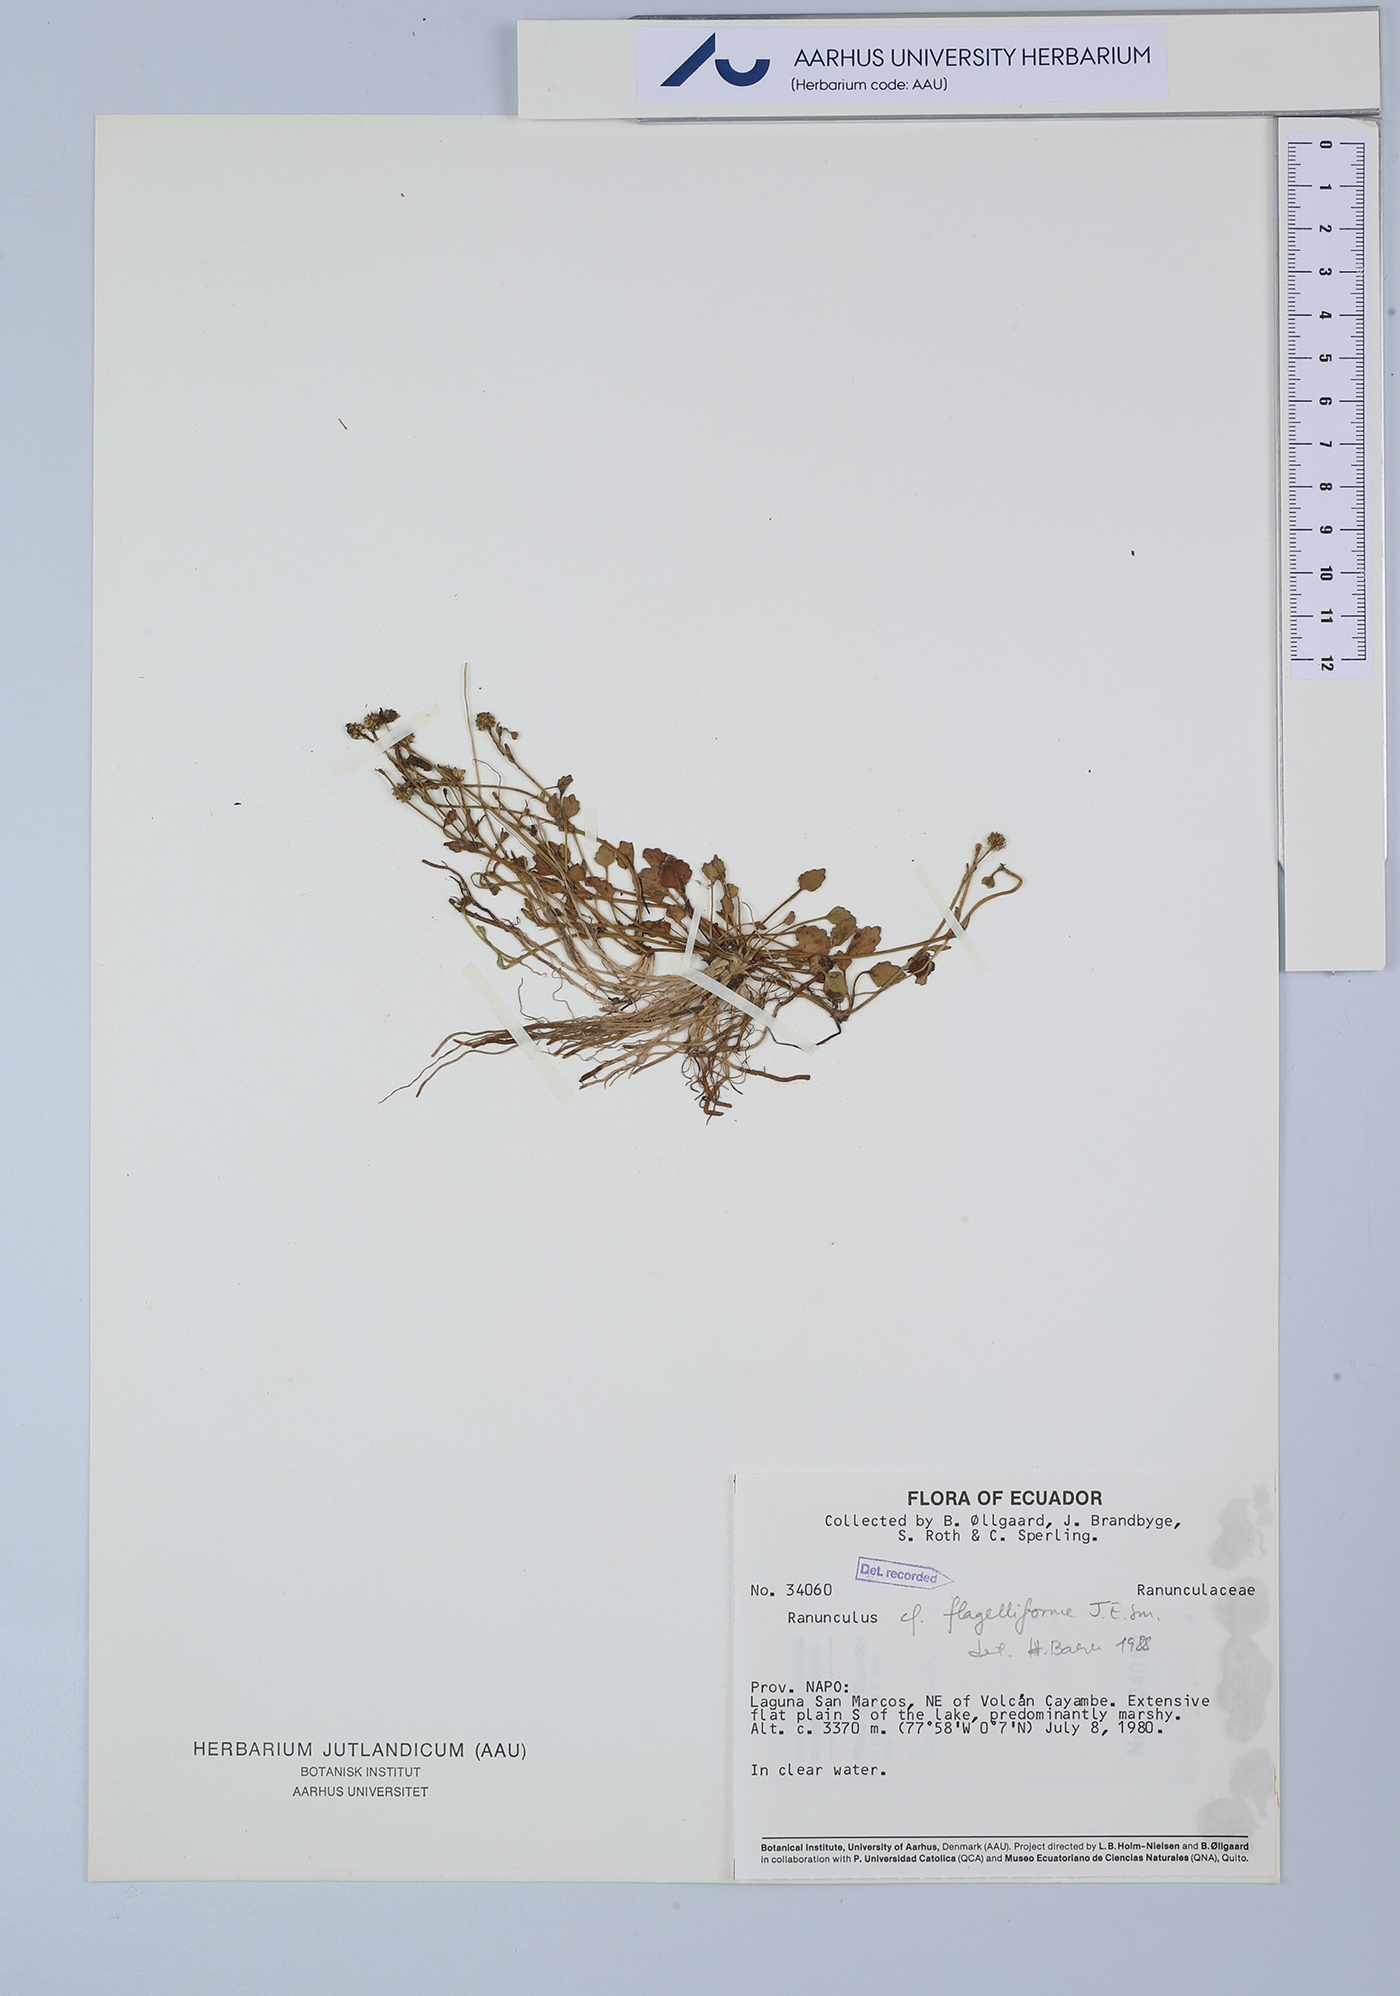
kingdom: Plantae
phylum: Tracheophyta
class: Magnoliopsida
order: Ranunculales
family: Ranunculaceae
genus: Ranunculus
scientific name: Ranunculus flagelliformis
